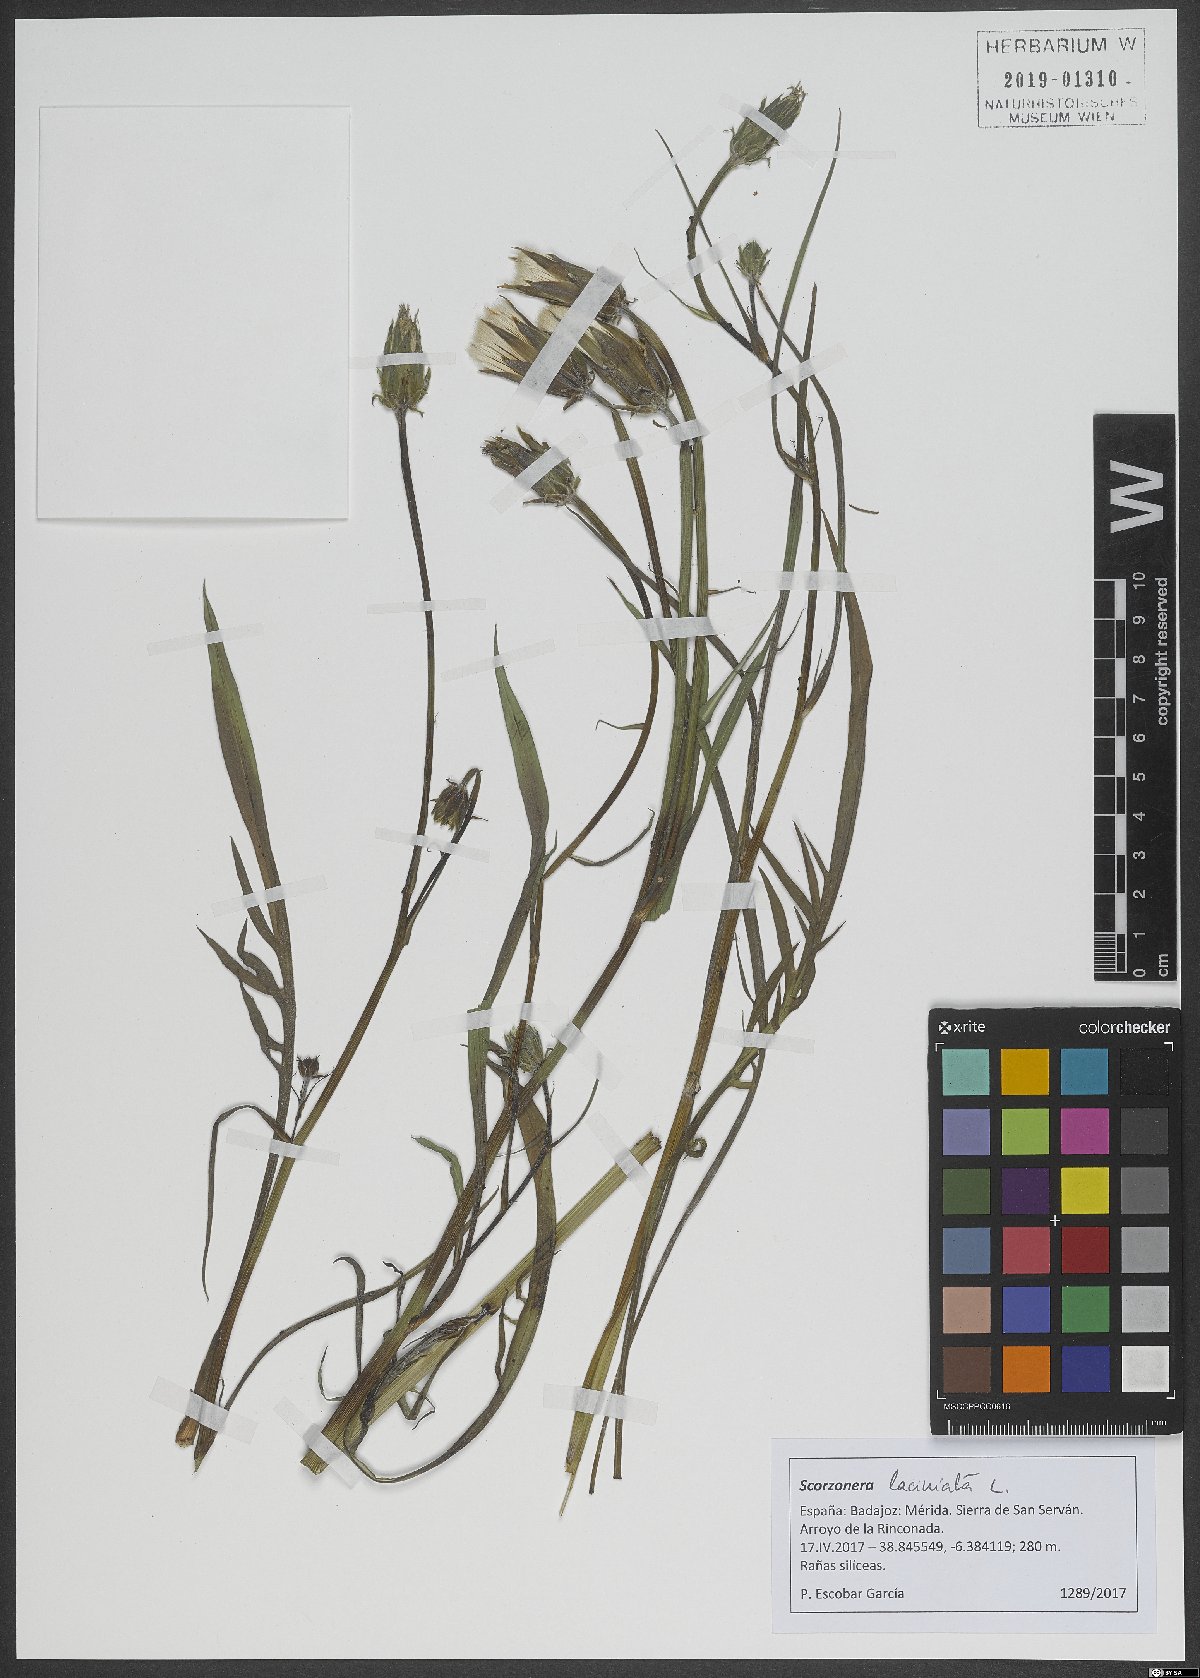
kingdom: Plantae
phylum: Tracheophyta
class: Magnoliopsida
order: Asterales
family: Asteraceae
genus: Scorzonera
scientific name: Scorzonera laciniata
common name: Cutleaf vipergrass
